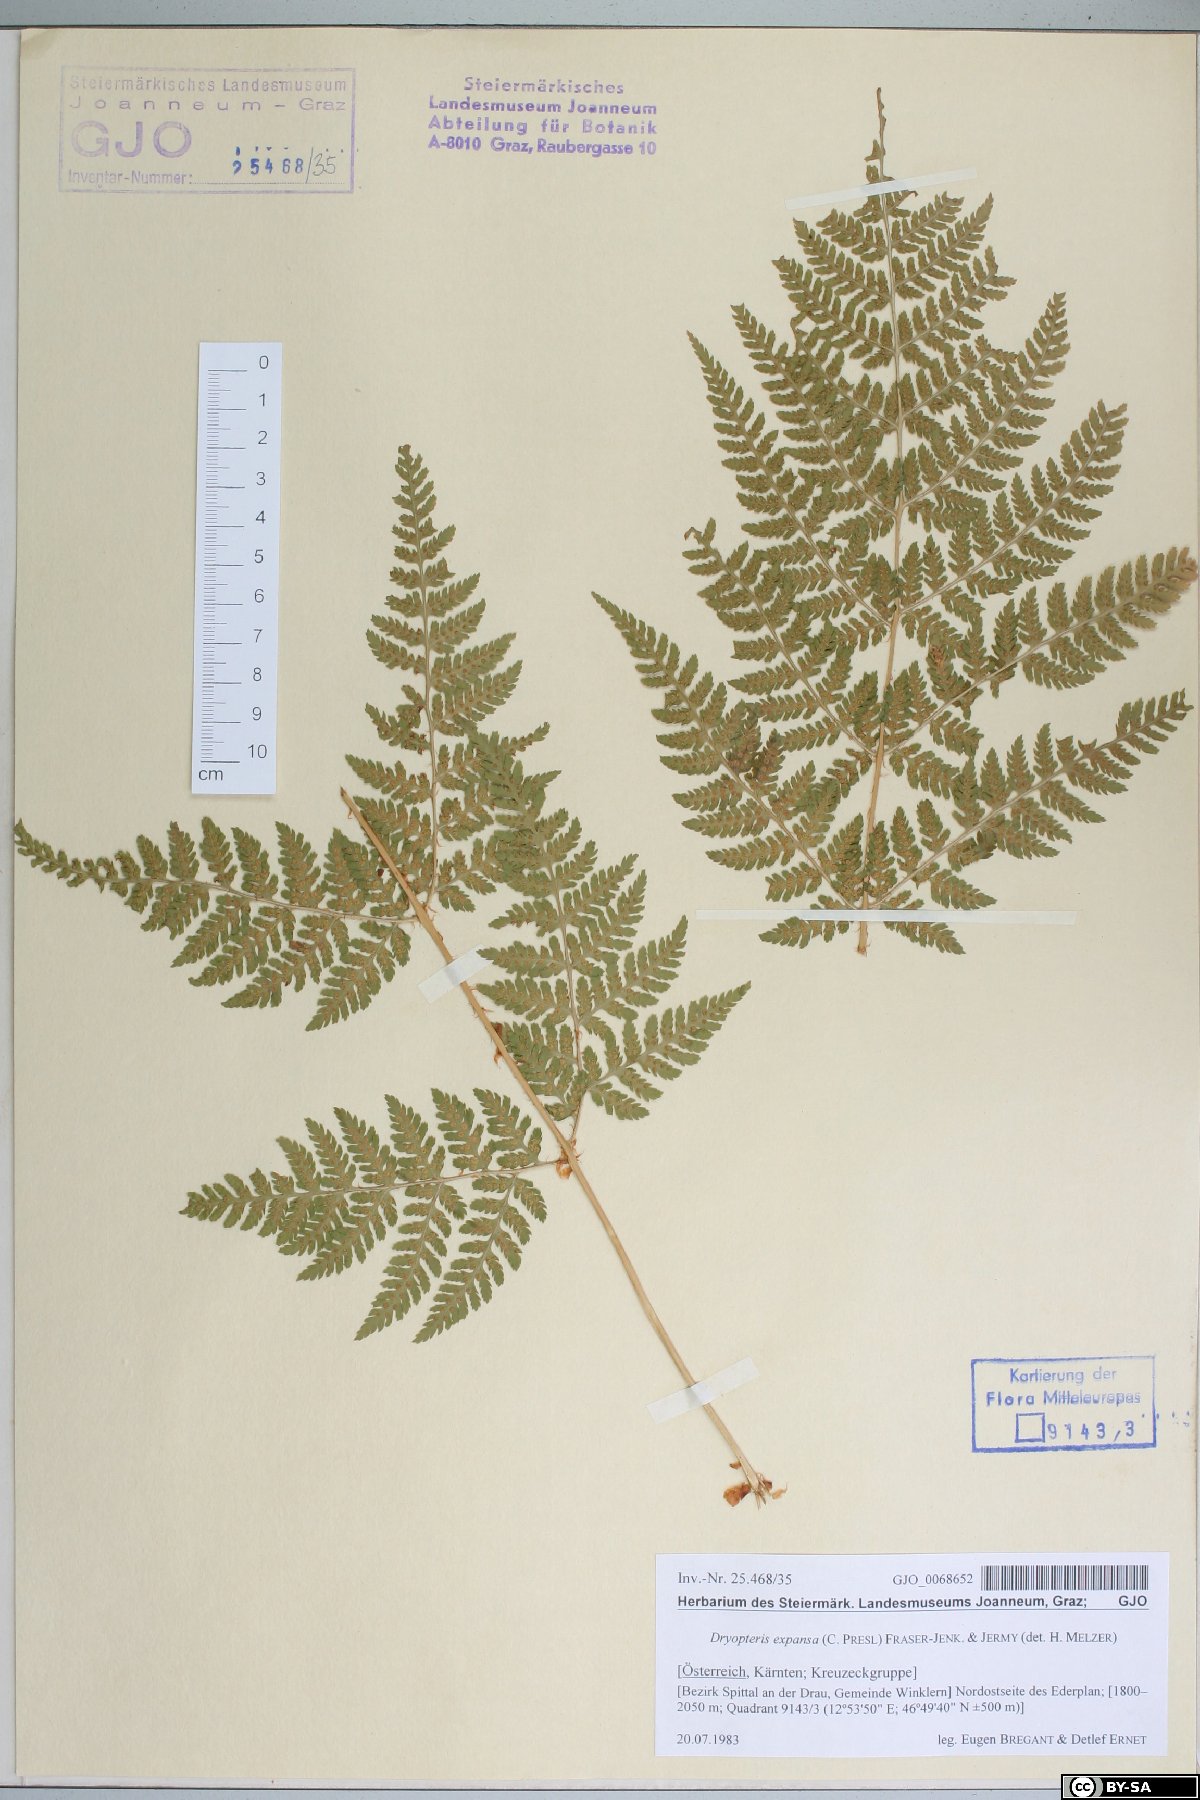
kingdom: Plantae
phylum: Tracheophyta
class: Polypodiopsida
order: Polypodiales
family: Dryopteridaceae
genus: Dryopteris
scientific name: Dryopteris expansa
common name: Northern buckler fern
